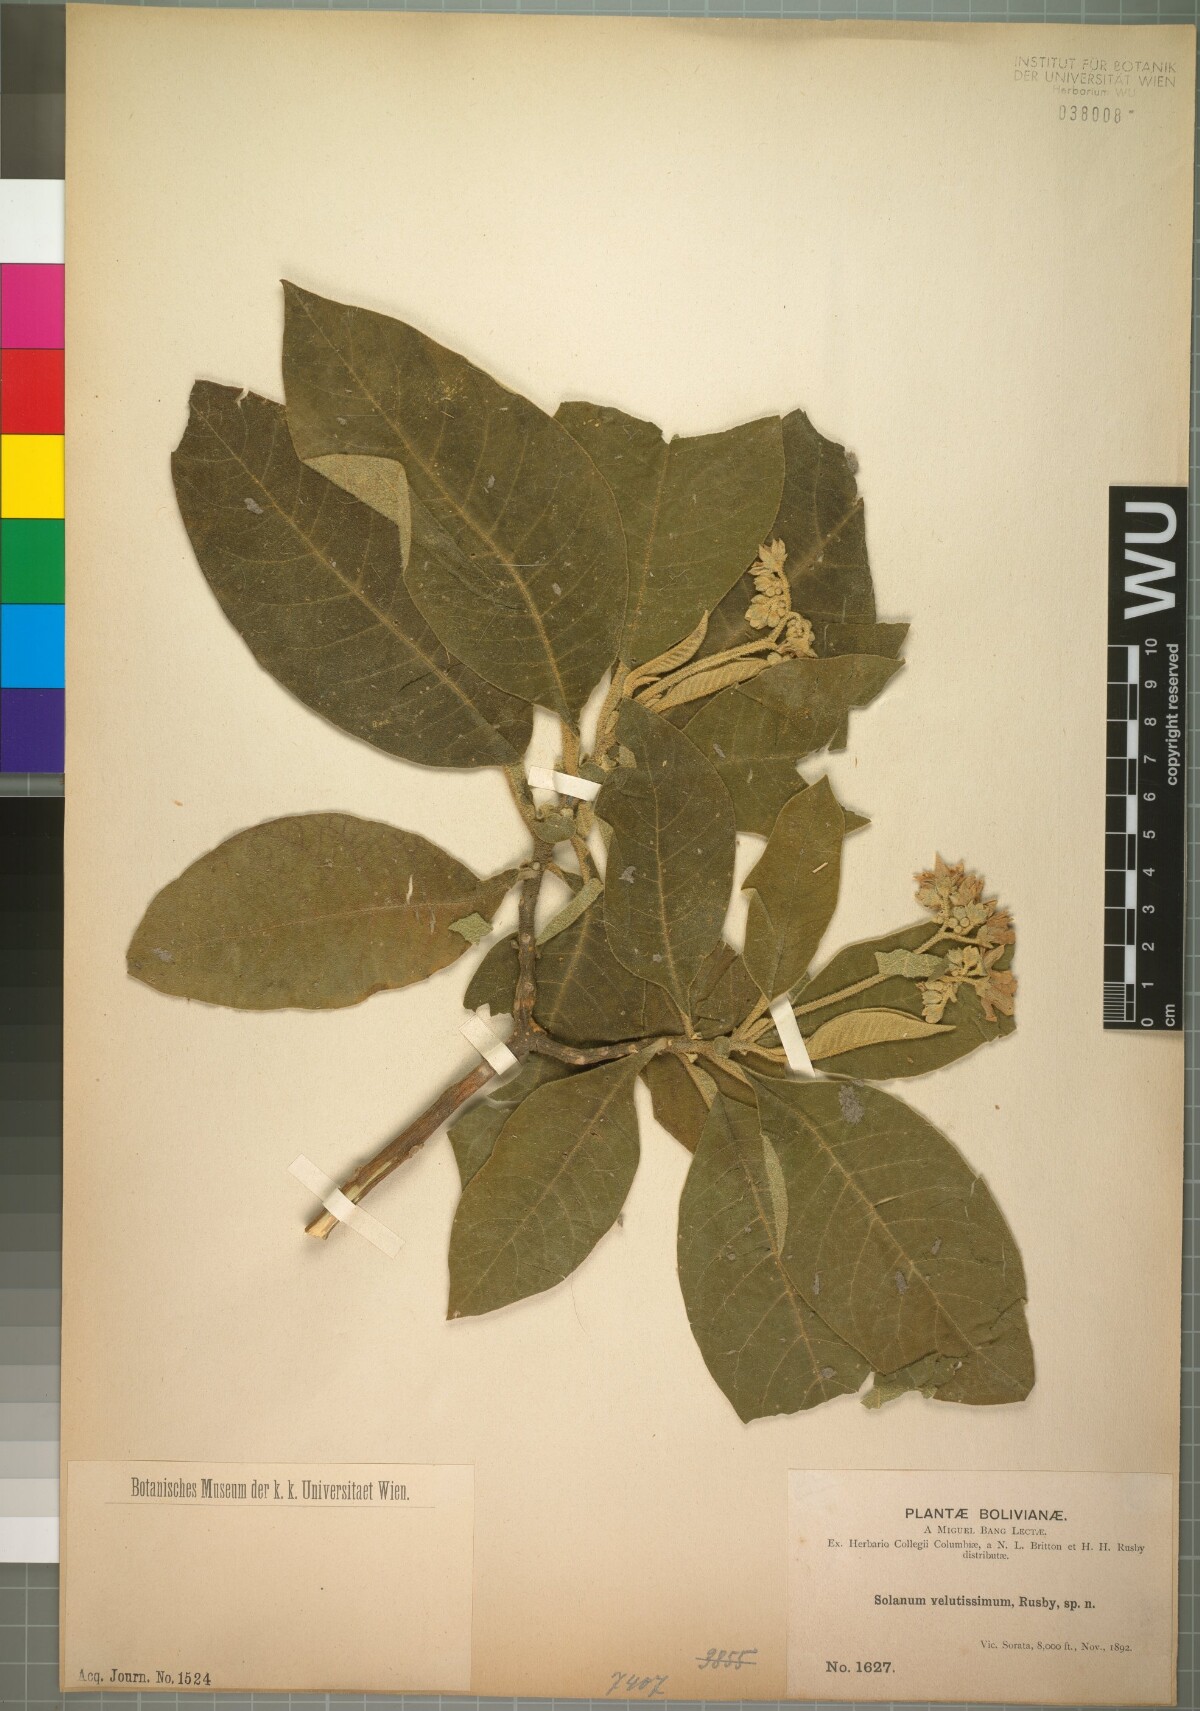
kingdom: Plantae
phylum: Tracheophyta
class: Magnoliopsida
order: Solanales
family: Solanaceae
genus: Solanum
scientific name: Solanum velutissimum
